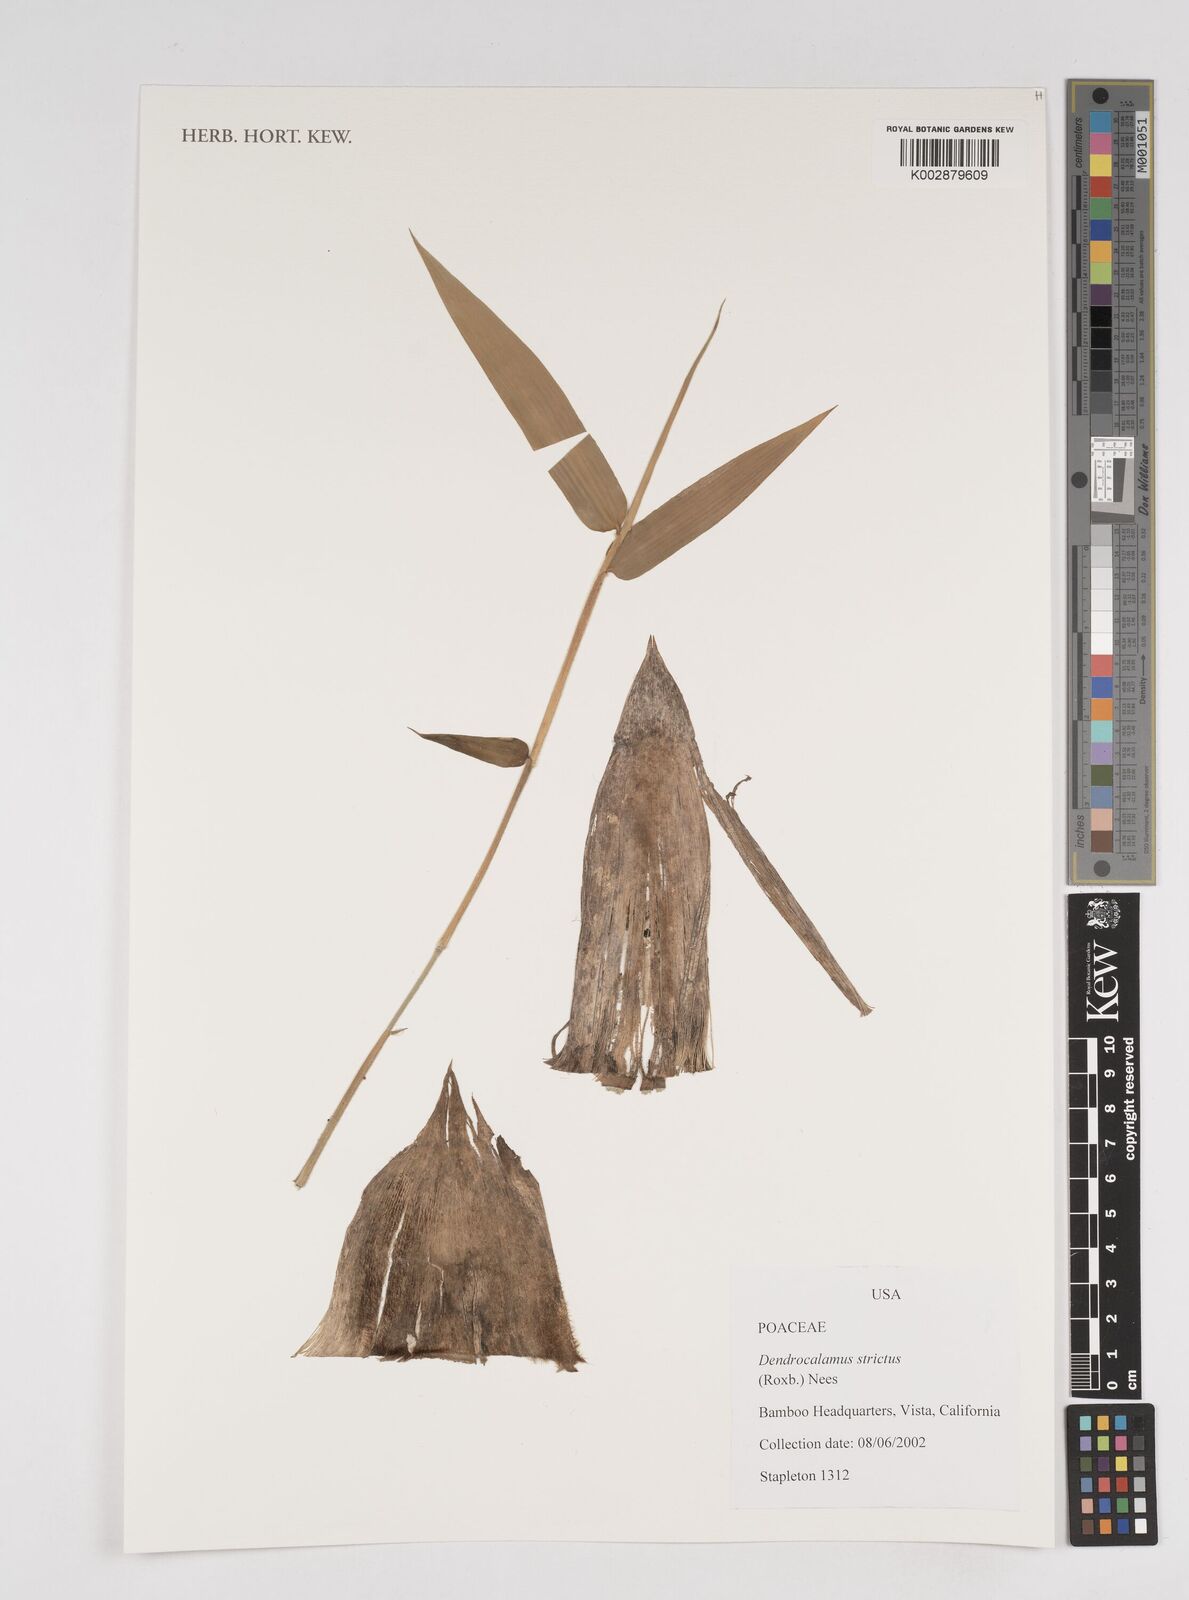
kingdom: Plantae
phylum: Tracheophyta
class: Liliopsida
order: Poales
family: Poaceae
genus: Dendrocalamus
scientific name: Dendrocalamus strictus
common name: Male bamboo
